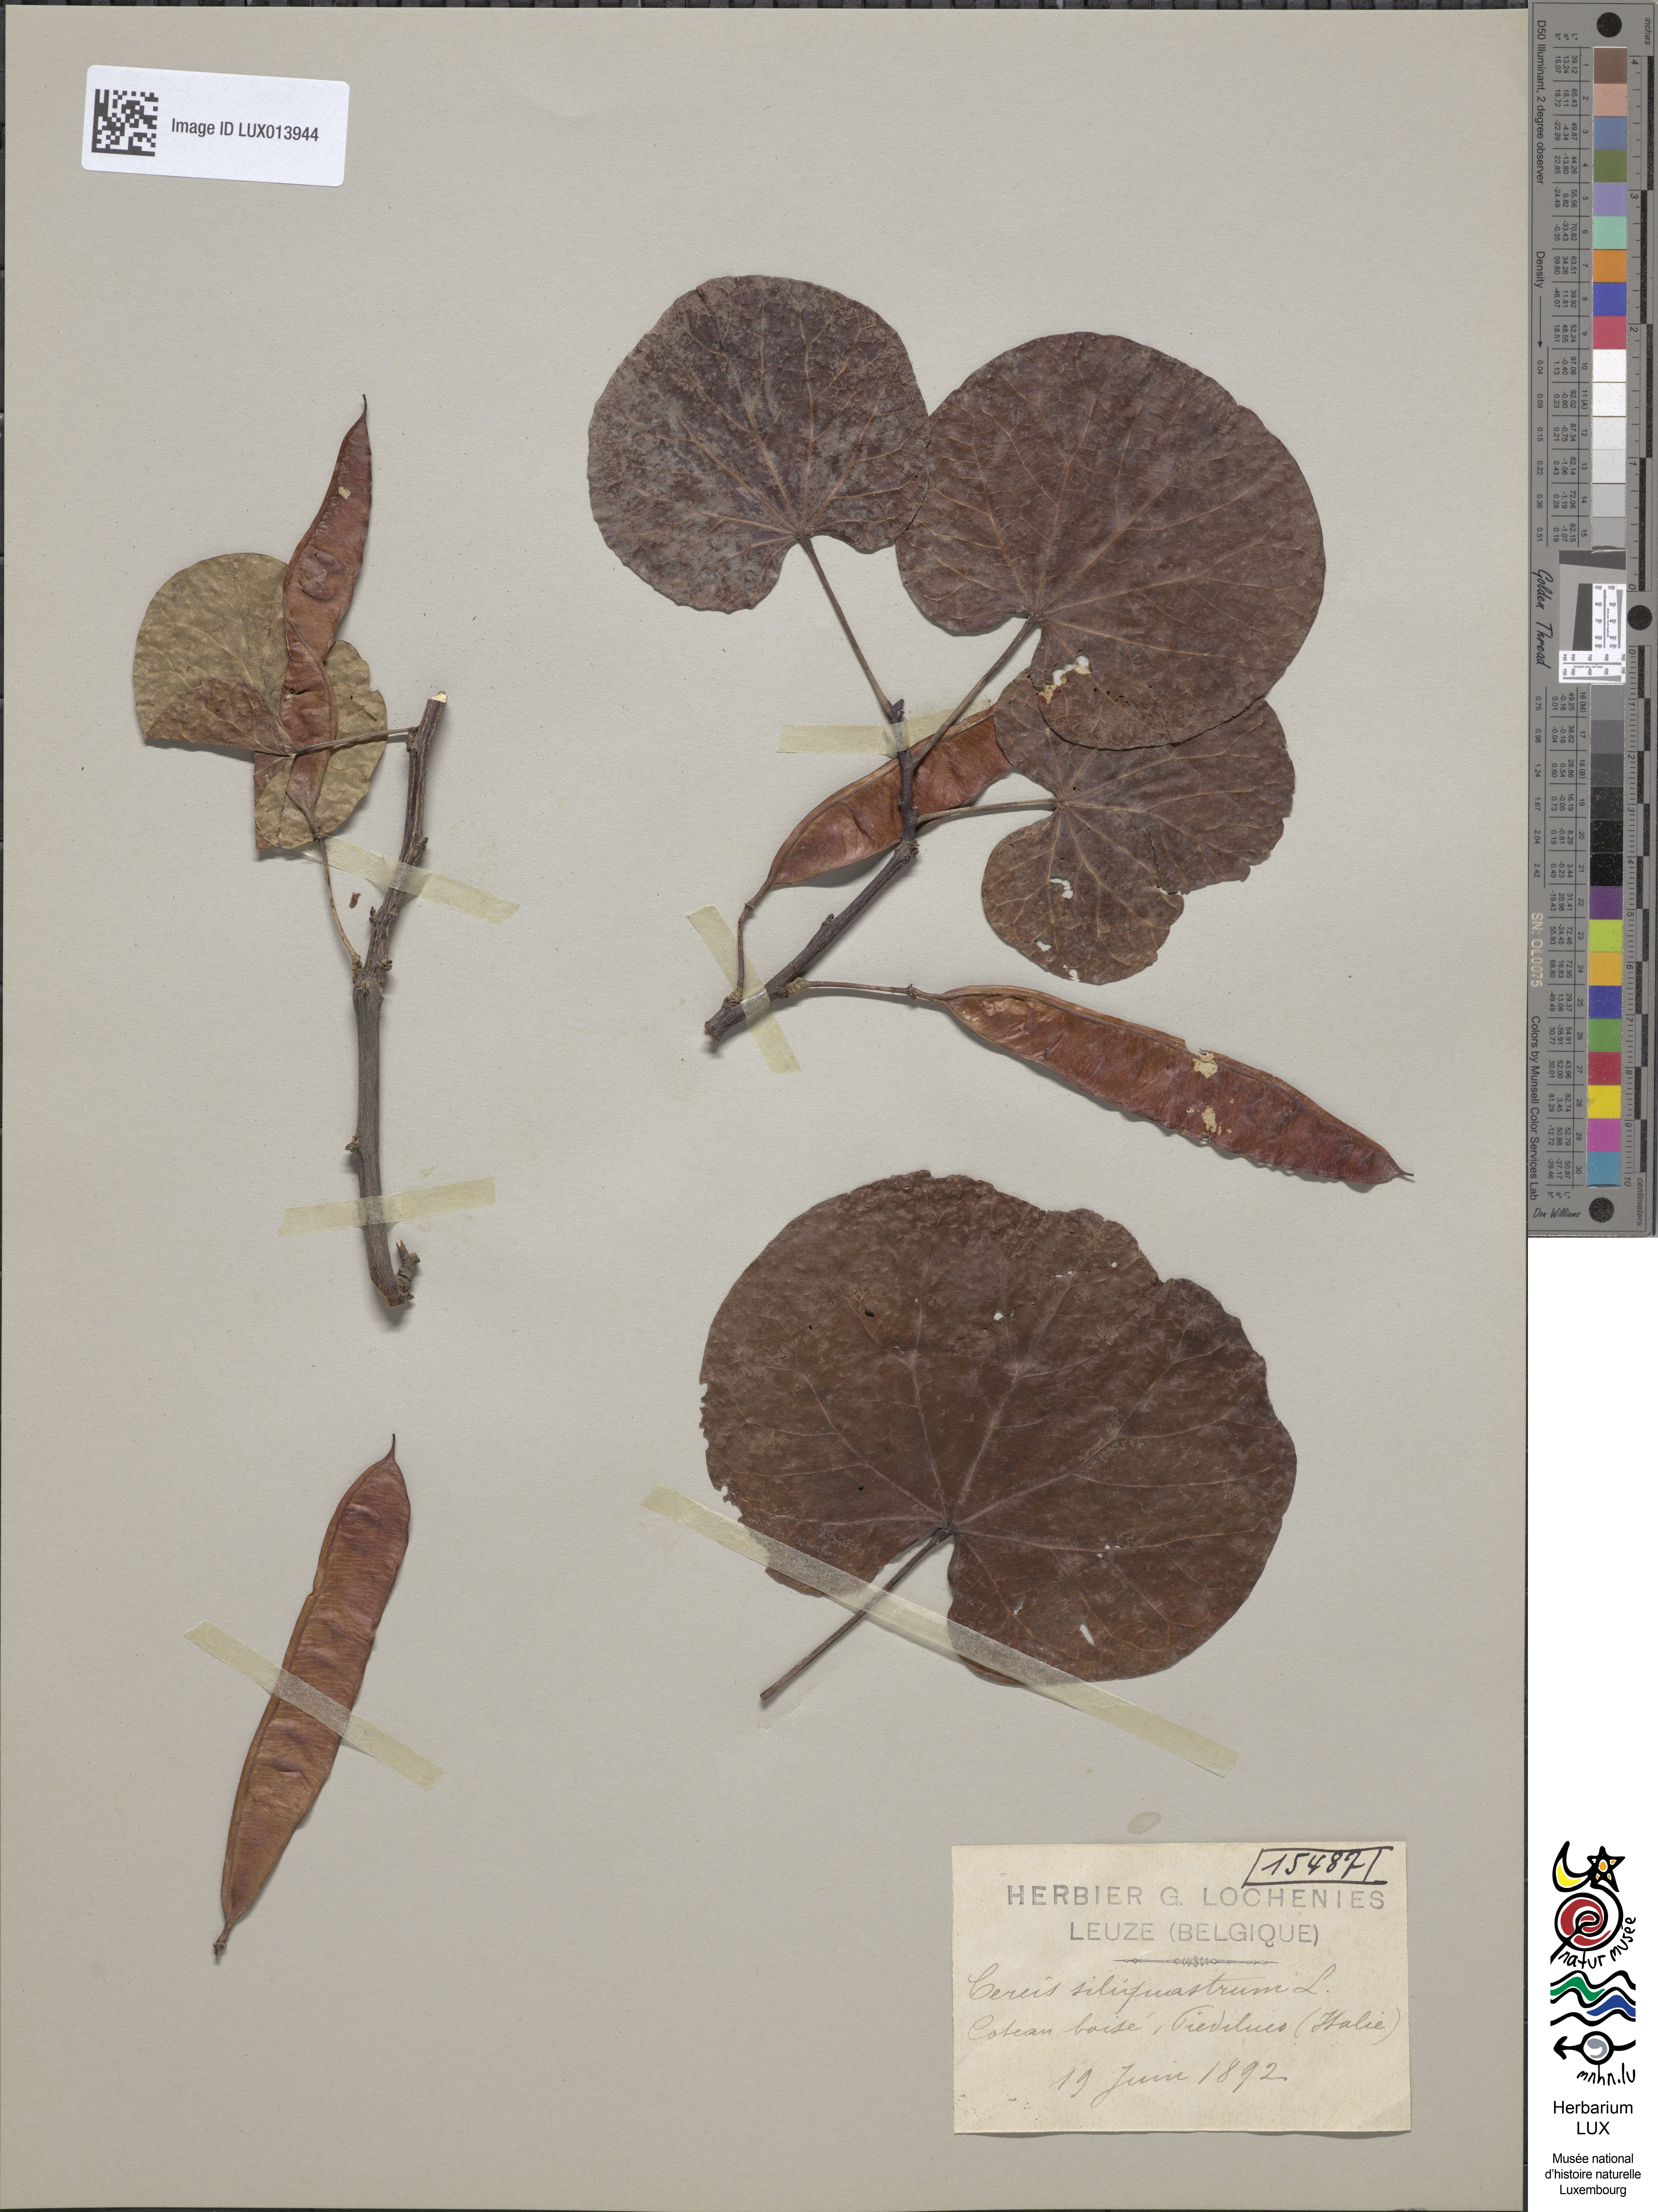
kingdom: Plantae
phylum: Tracheophyta
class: Magnoliopsida
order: Fabales
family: Fabaceae
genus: Cercis
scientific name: Cercis siliquastrum
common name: Judas tree
